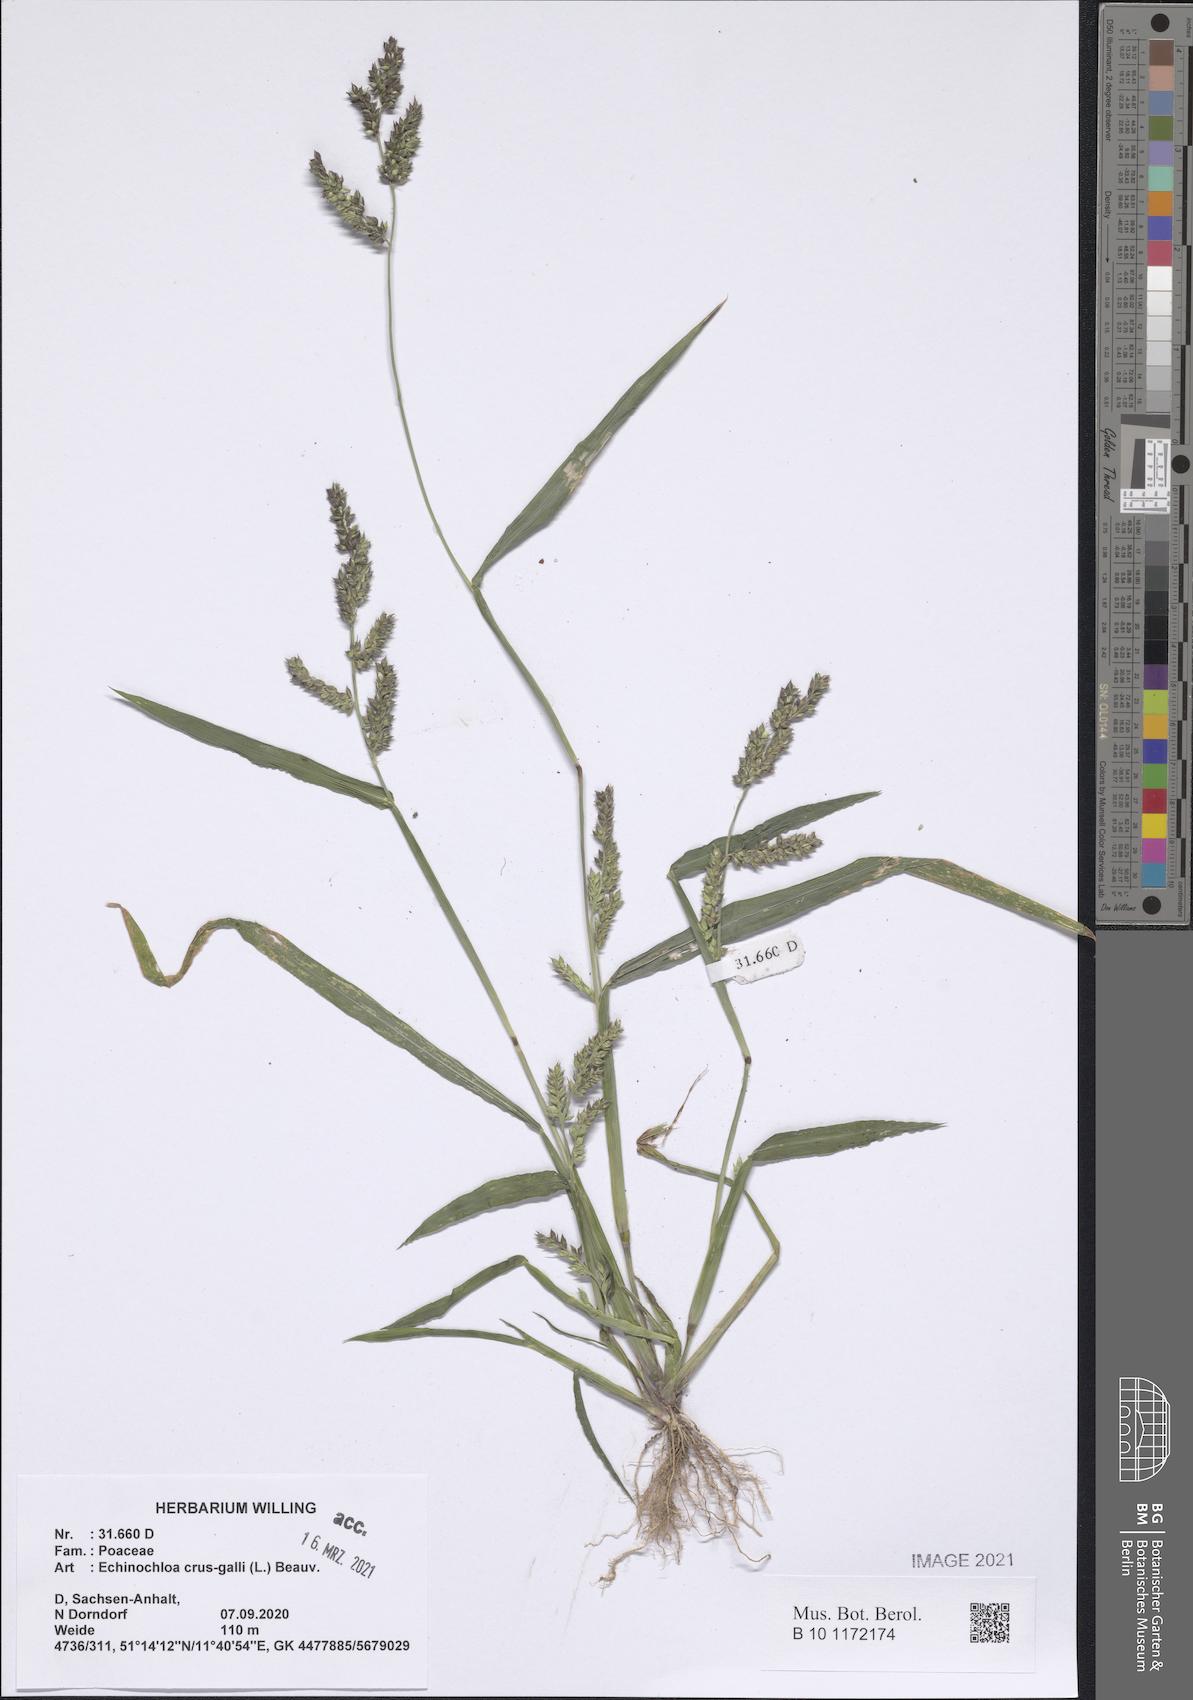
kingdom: Plantae
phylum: Tracheophyta
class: Liliopsida
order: Poales
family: Poaceae
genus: Echinochloa
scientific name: Echinochloa crus-galli
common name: Cockspur
